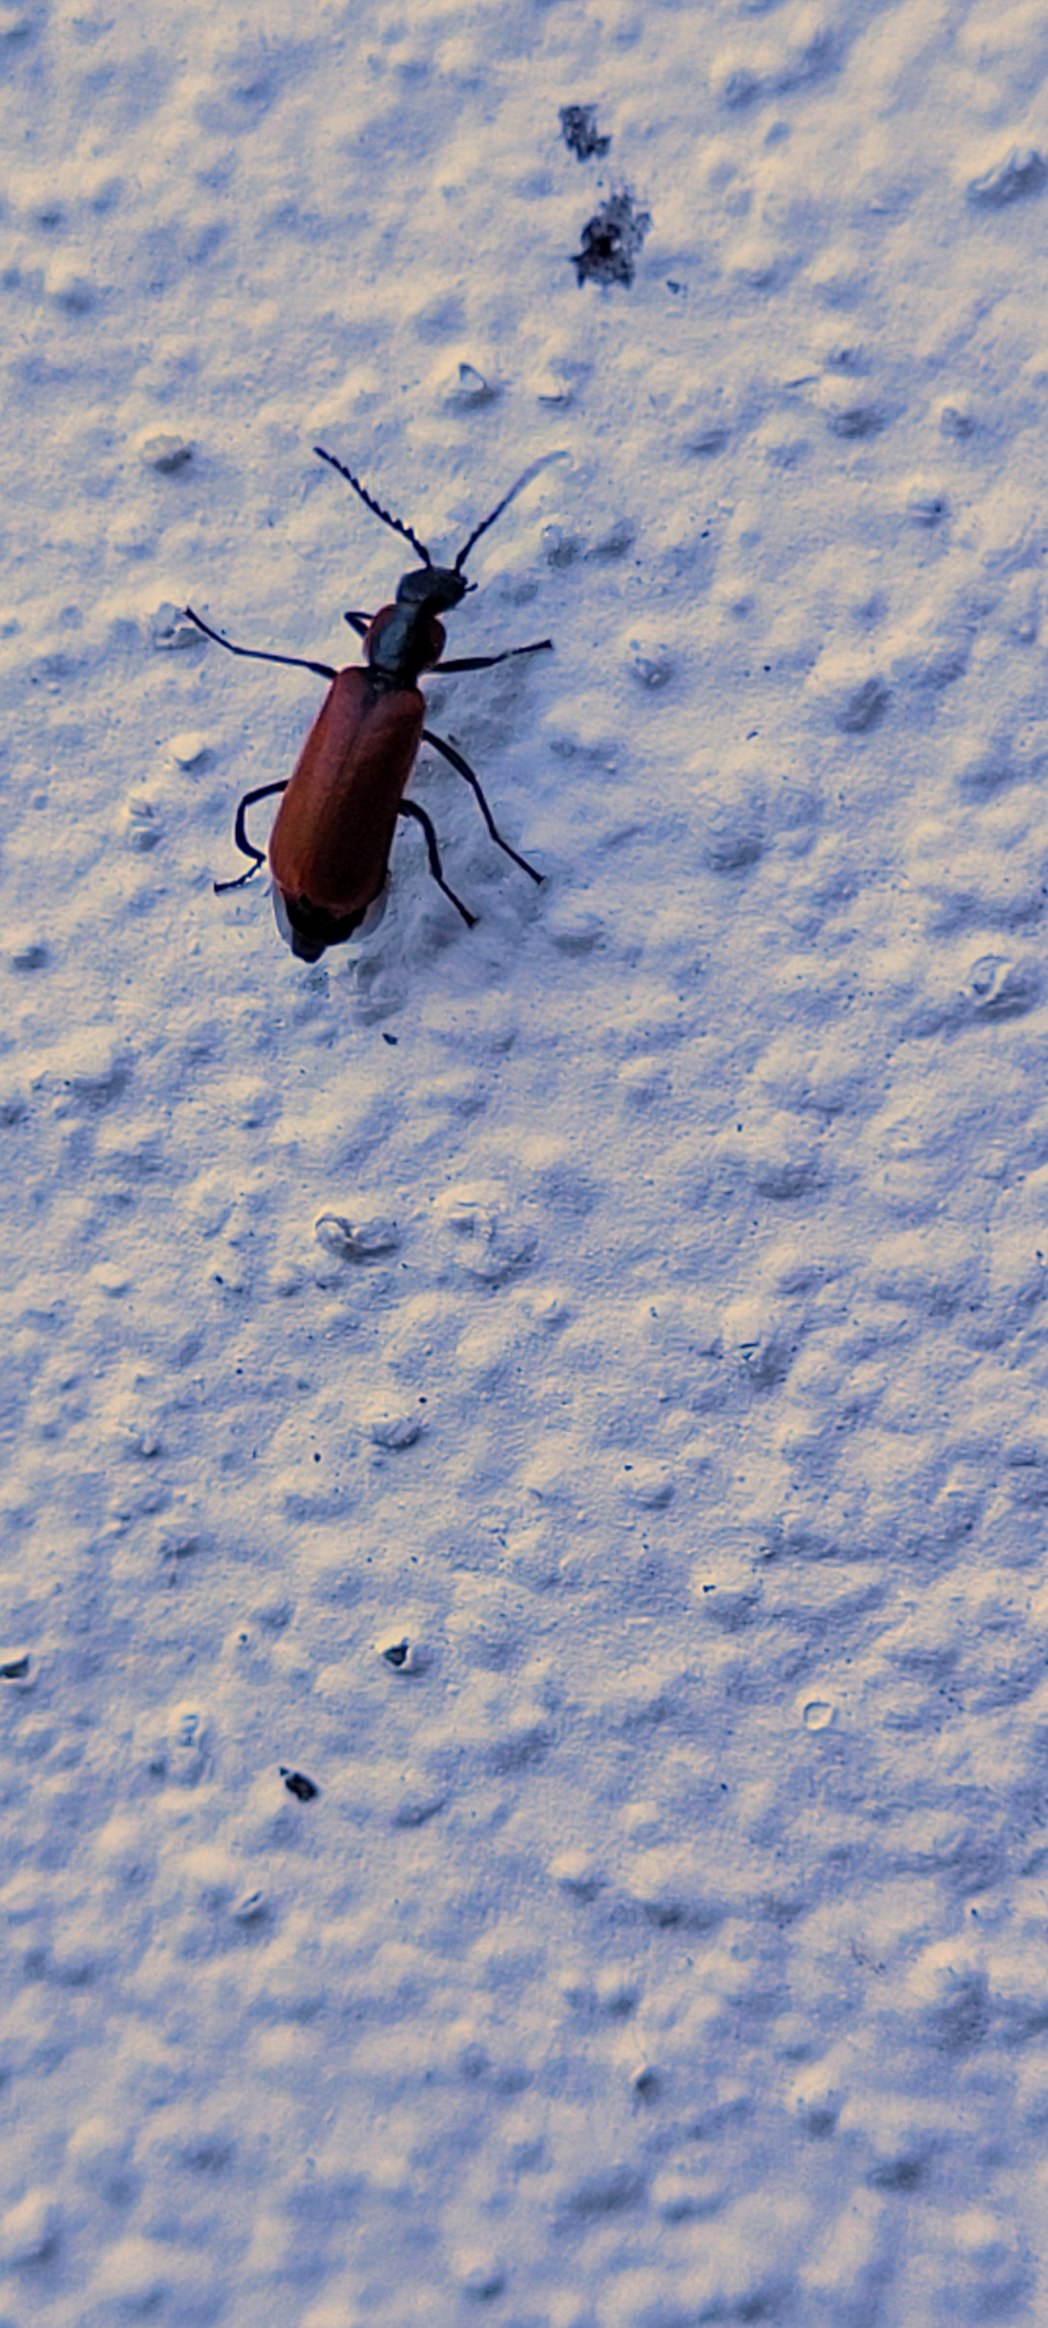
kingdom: Animalia
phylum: Arthropoda
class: Insecta
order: Coleoptera
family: Melyridae
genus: Anthocomus
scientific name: Anthocomus rufus
